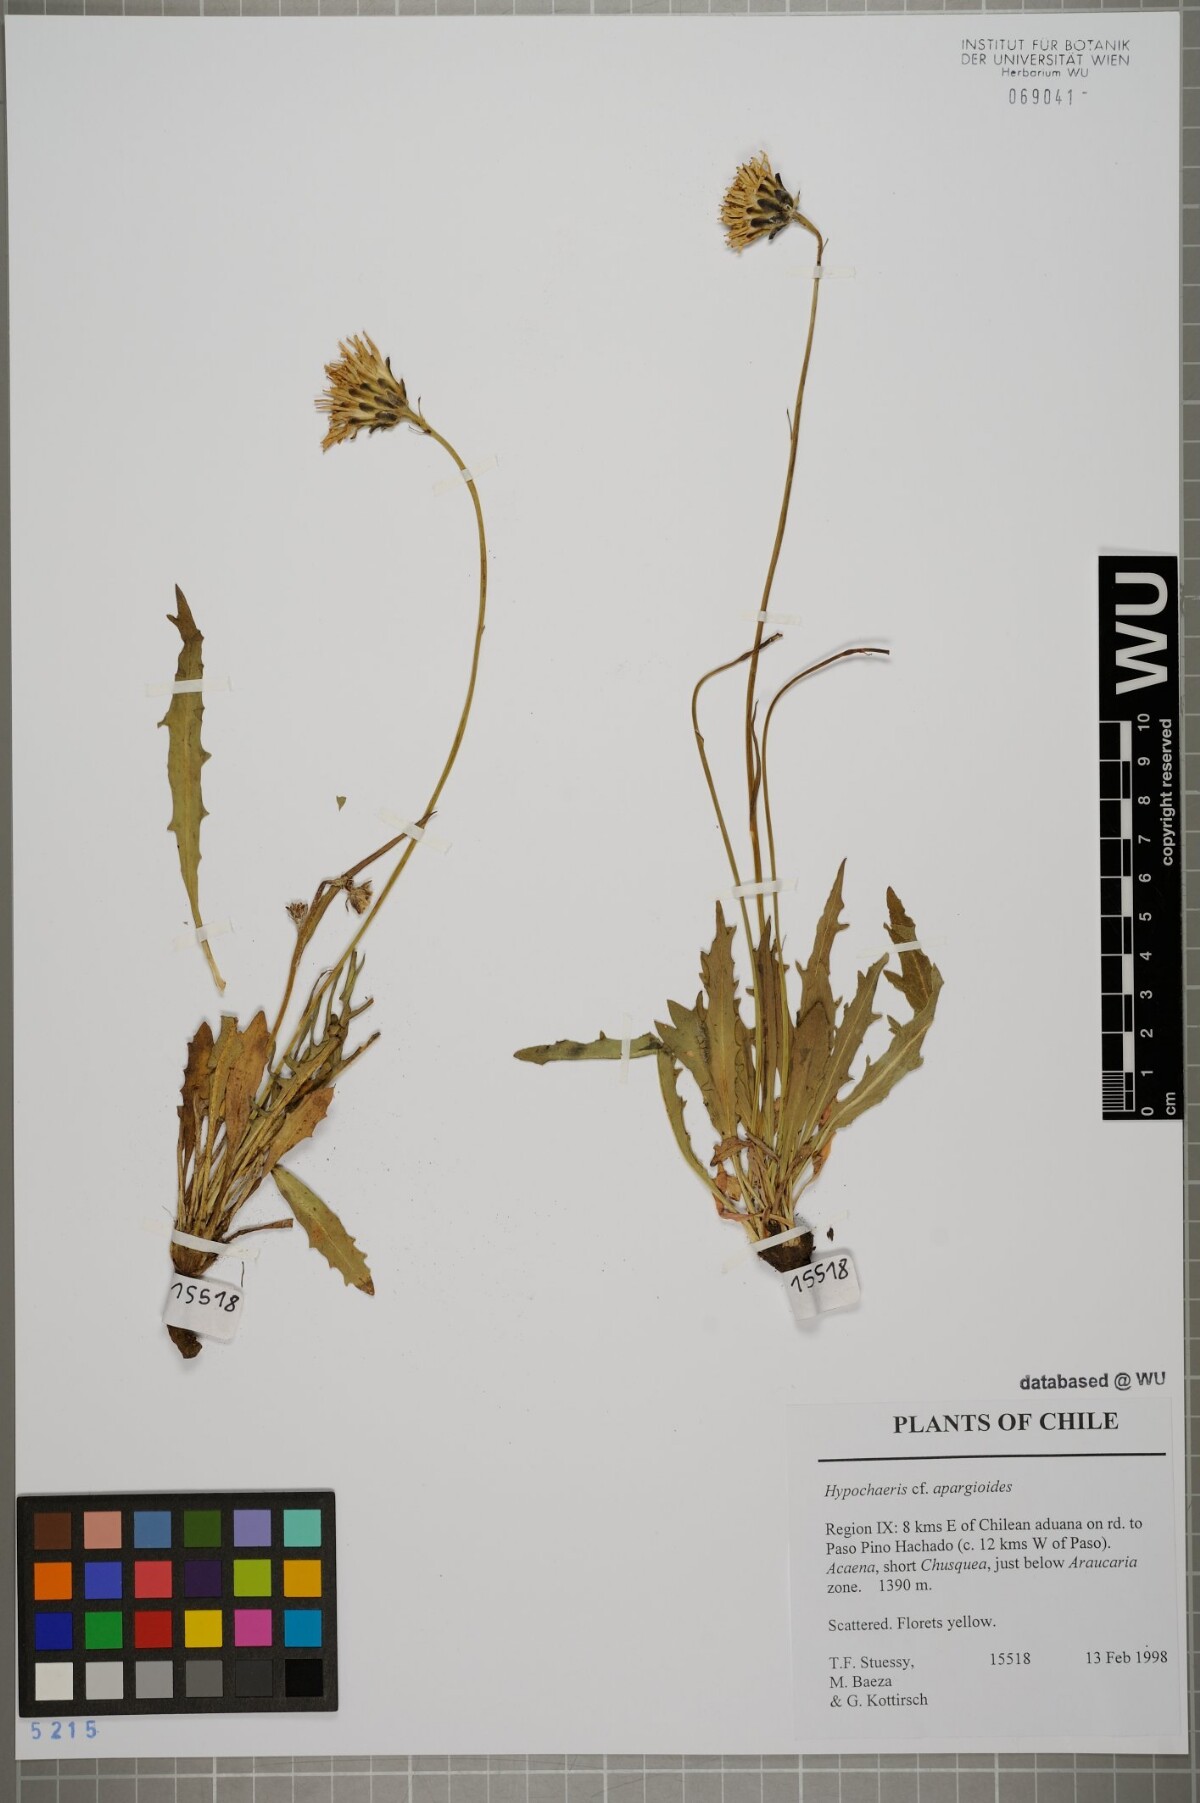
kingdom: Plantae
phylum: Tracheophyta
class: Magnoliopsida
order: Asterales
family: Asteraceae
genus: Hypochaeris
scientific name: Hypochaeris apargioides
